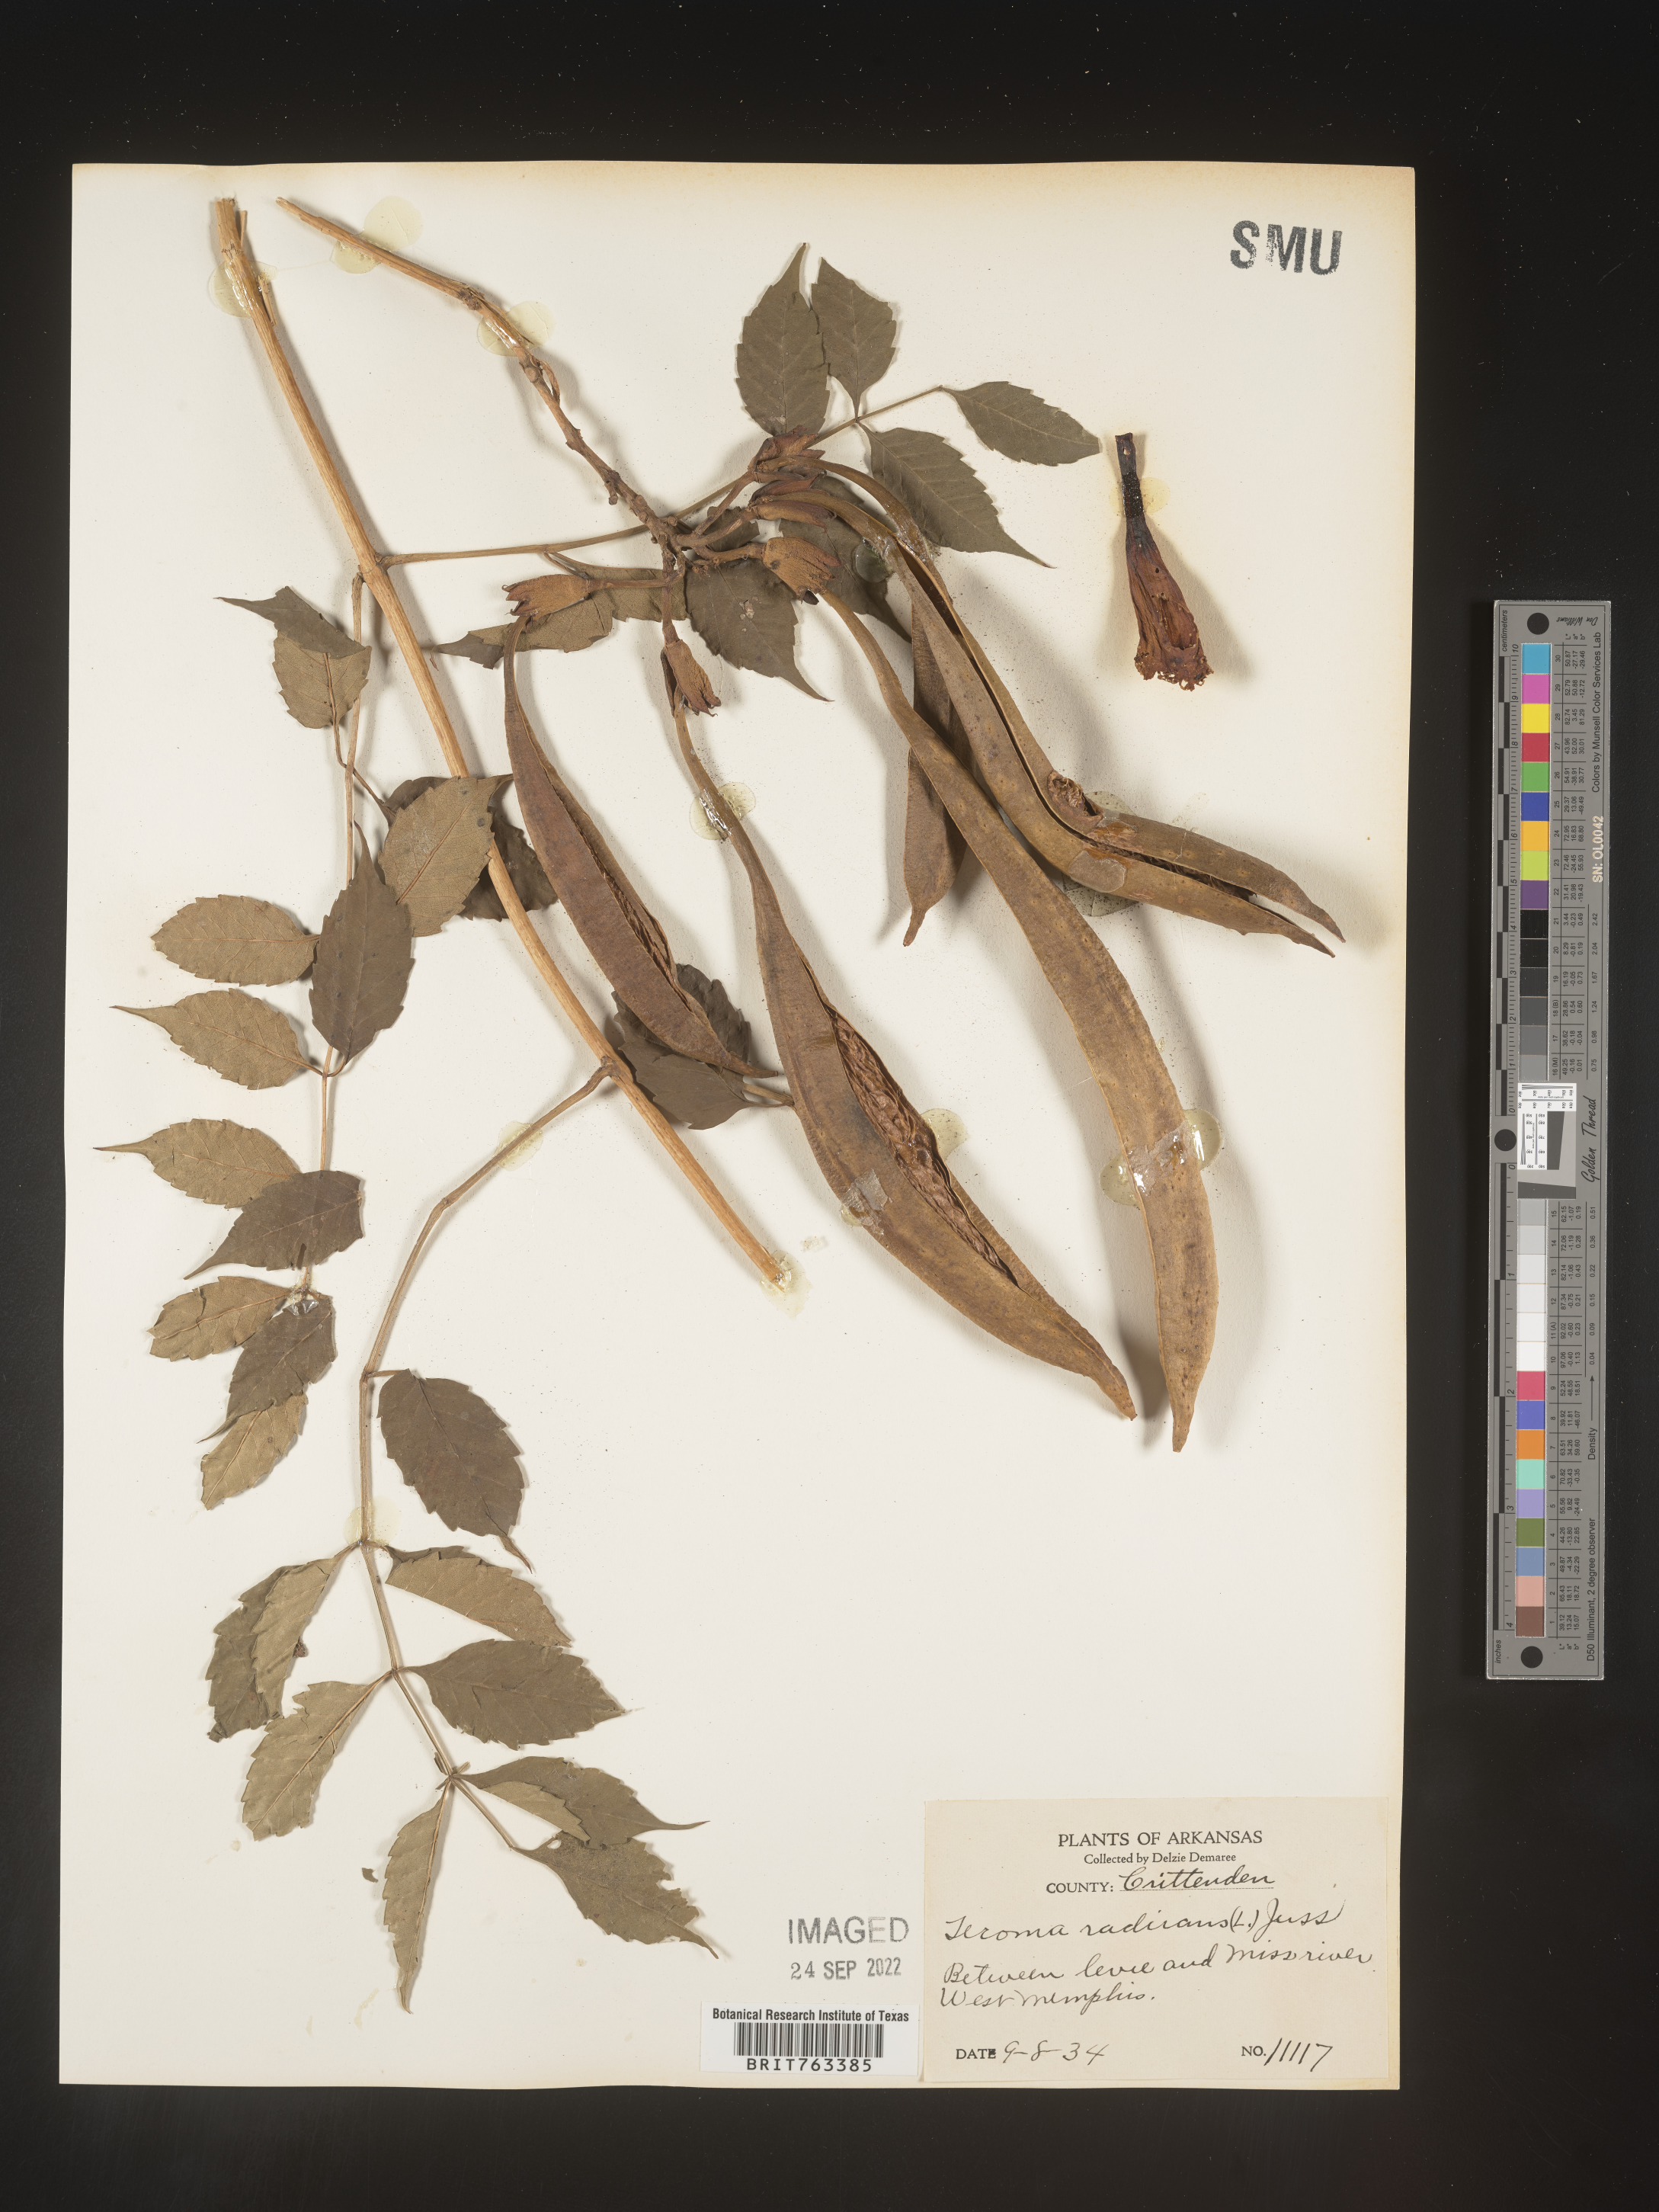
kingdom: Plantae
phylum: Tracheophyta
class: Magnoliopsida
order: Lamiales
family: Bignoniaceae
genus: Campsis
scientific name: Campsis radicans
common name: Trumpet-creeper
